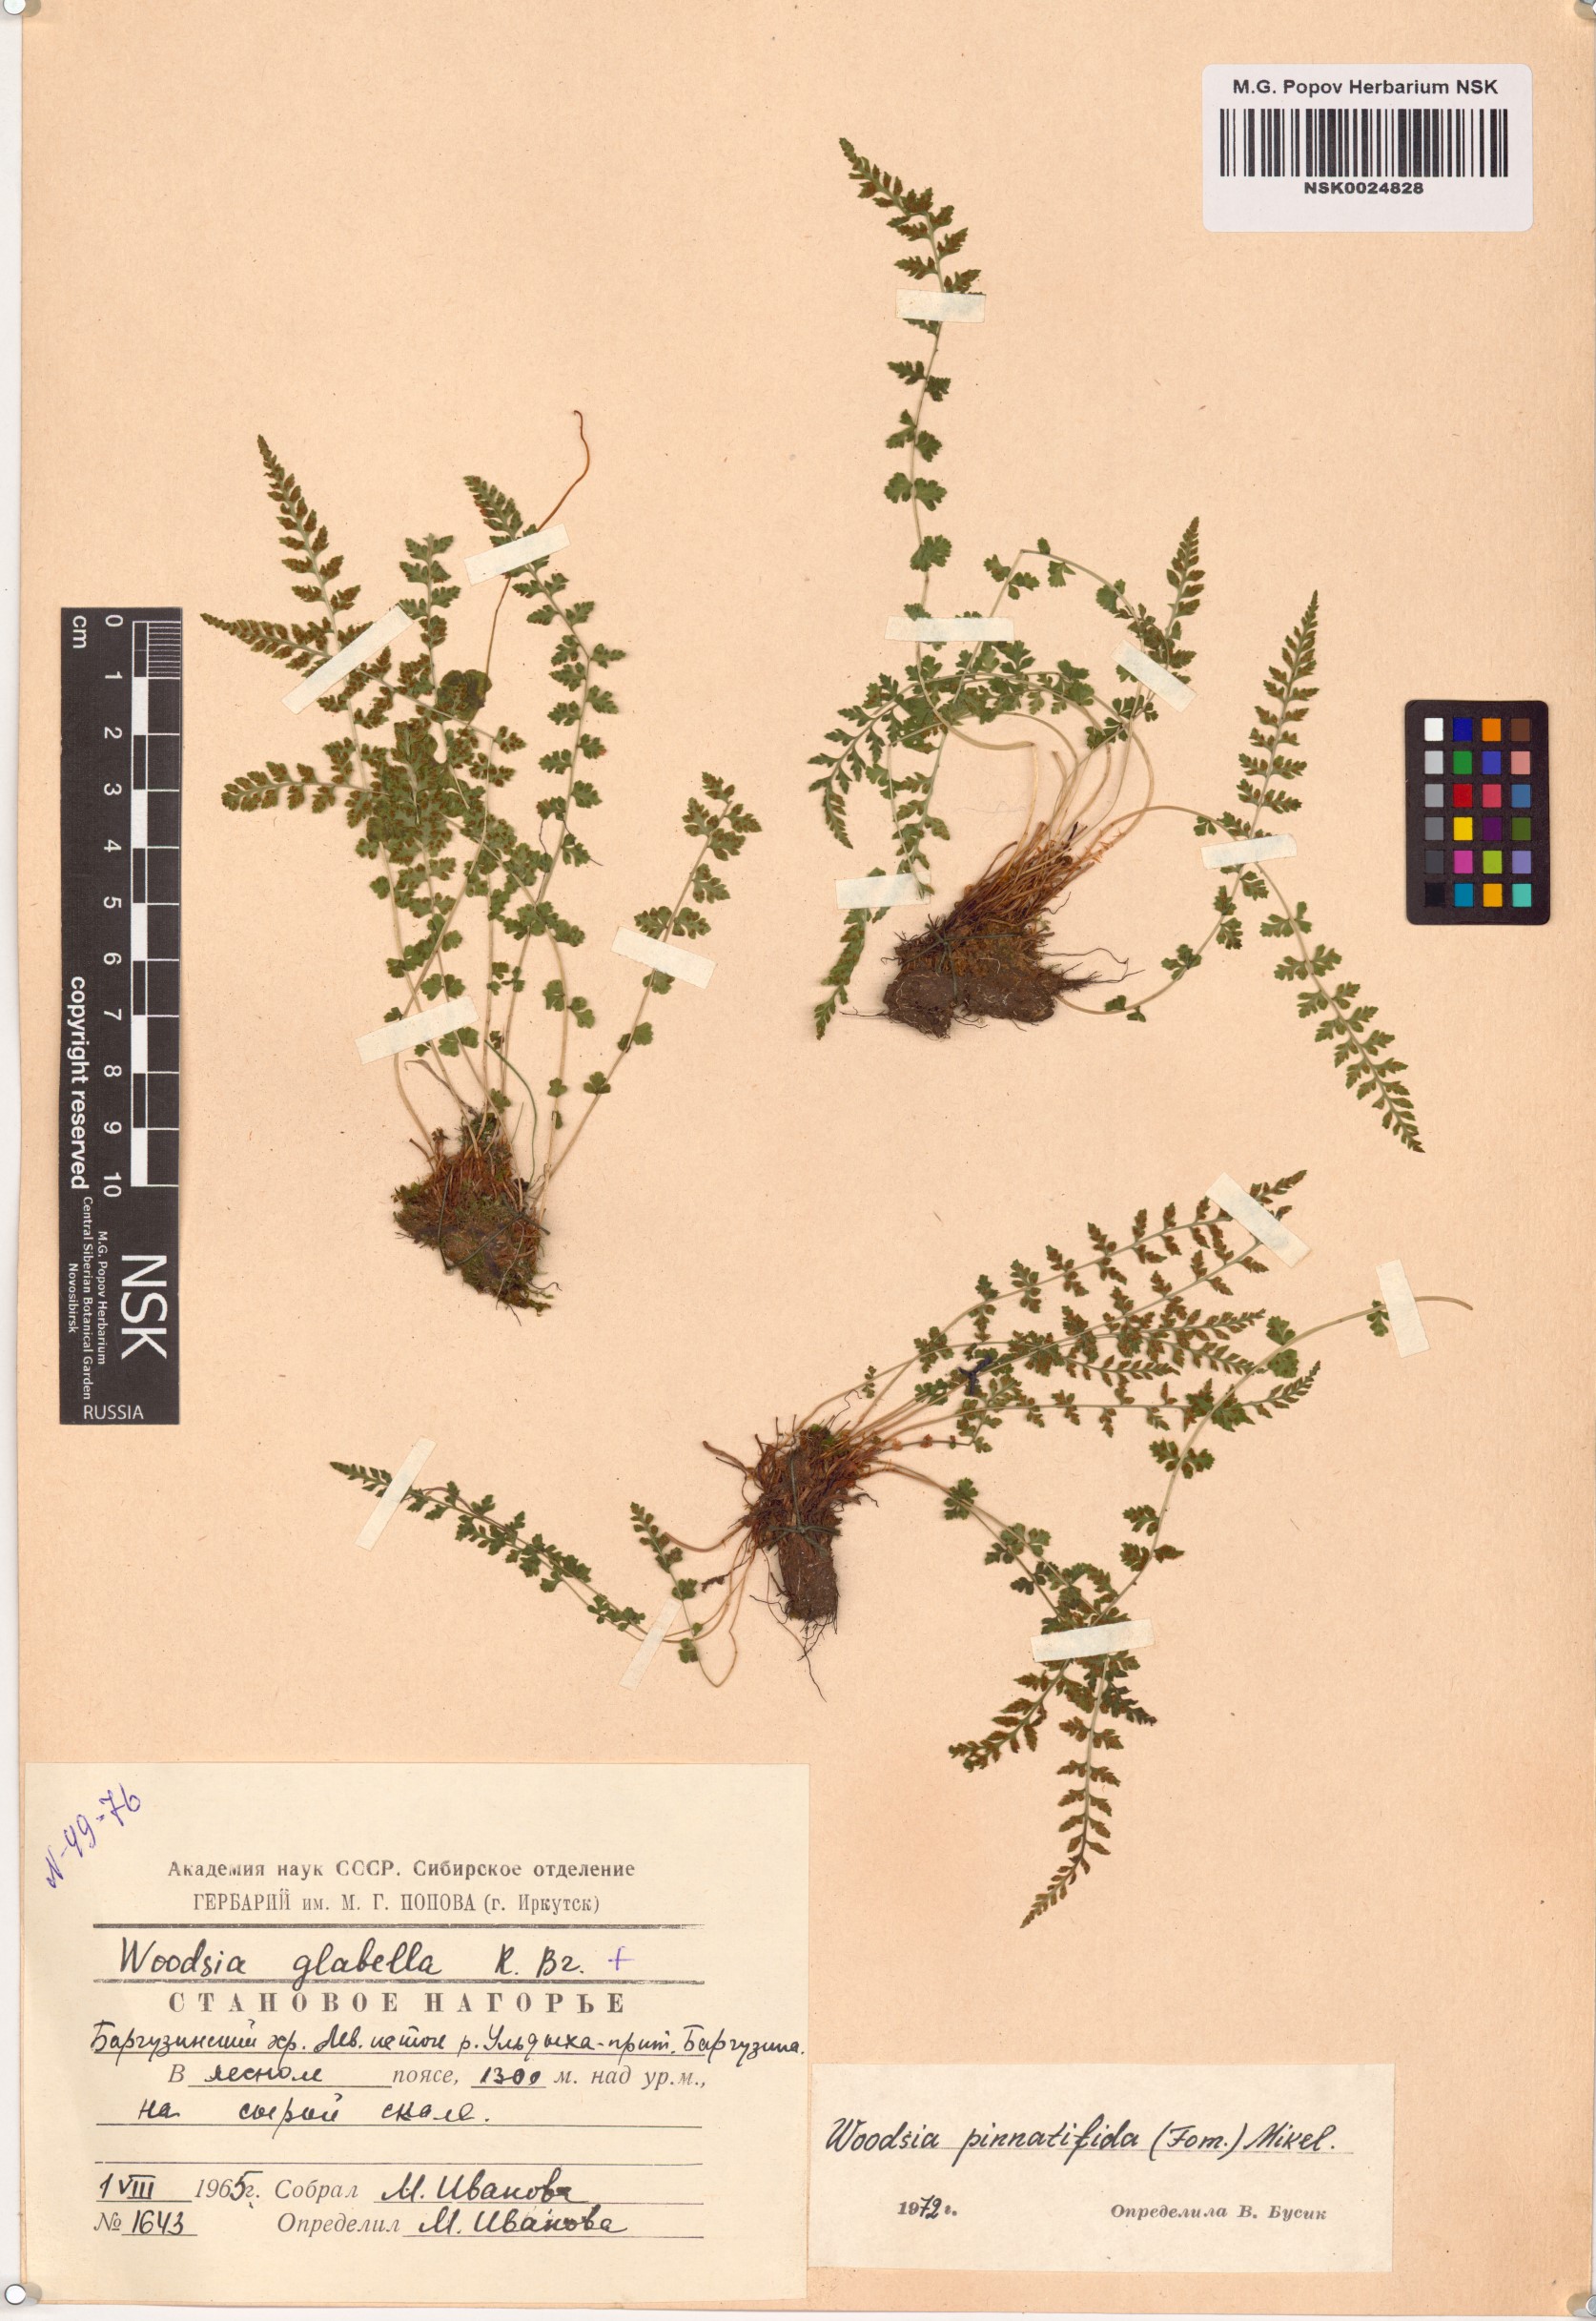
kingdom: Plantae
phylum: Tracheophyta
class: Polypodiopsida
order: Polypodiales
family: Woodsiaceae
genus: Woodsia
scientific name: Woodsia pulchella
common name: Graceful woodsia
